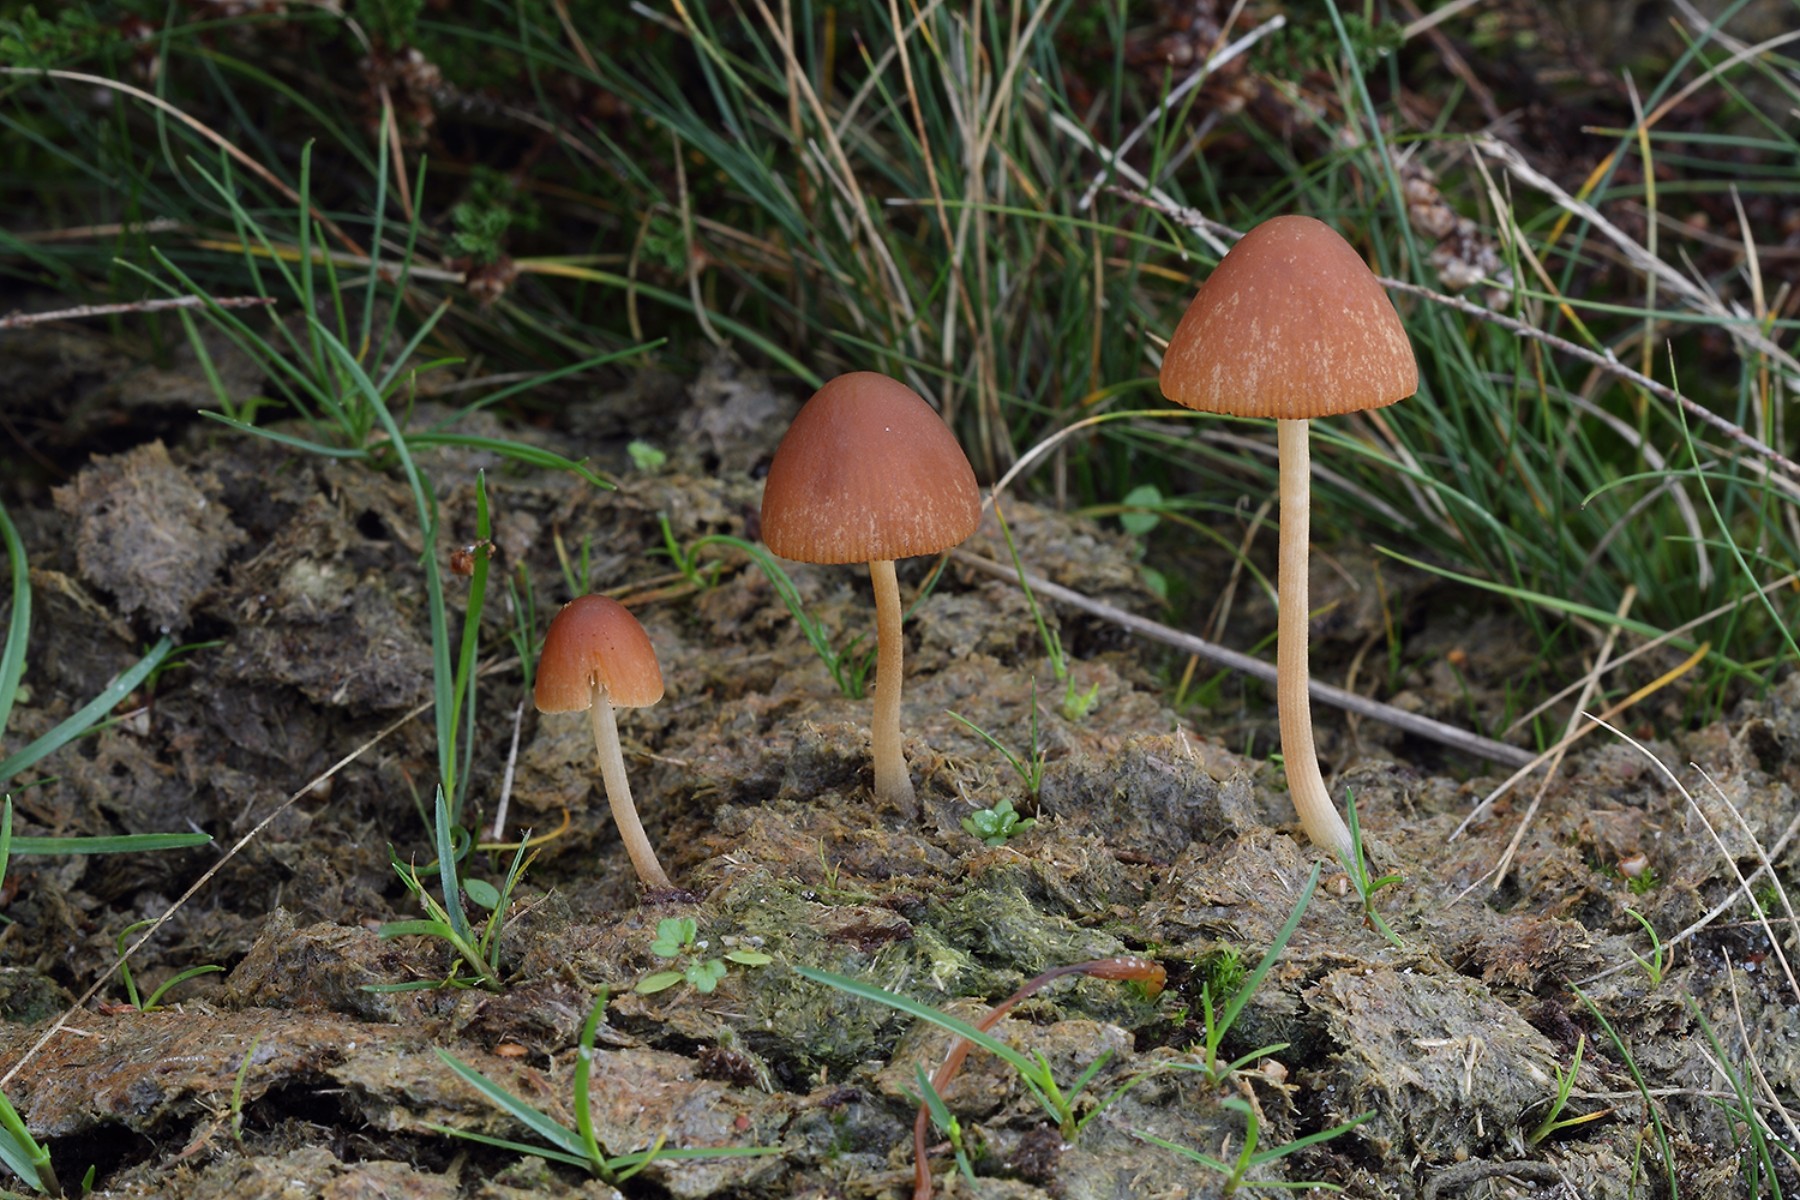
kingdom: Fungi
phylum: Basidiomycota
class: Agaricomycetes
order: Agaricales
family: Bolbitiaceae
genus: Conocybe
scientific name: Conocybe pubescens
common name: gødnings-keglehat
